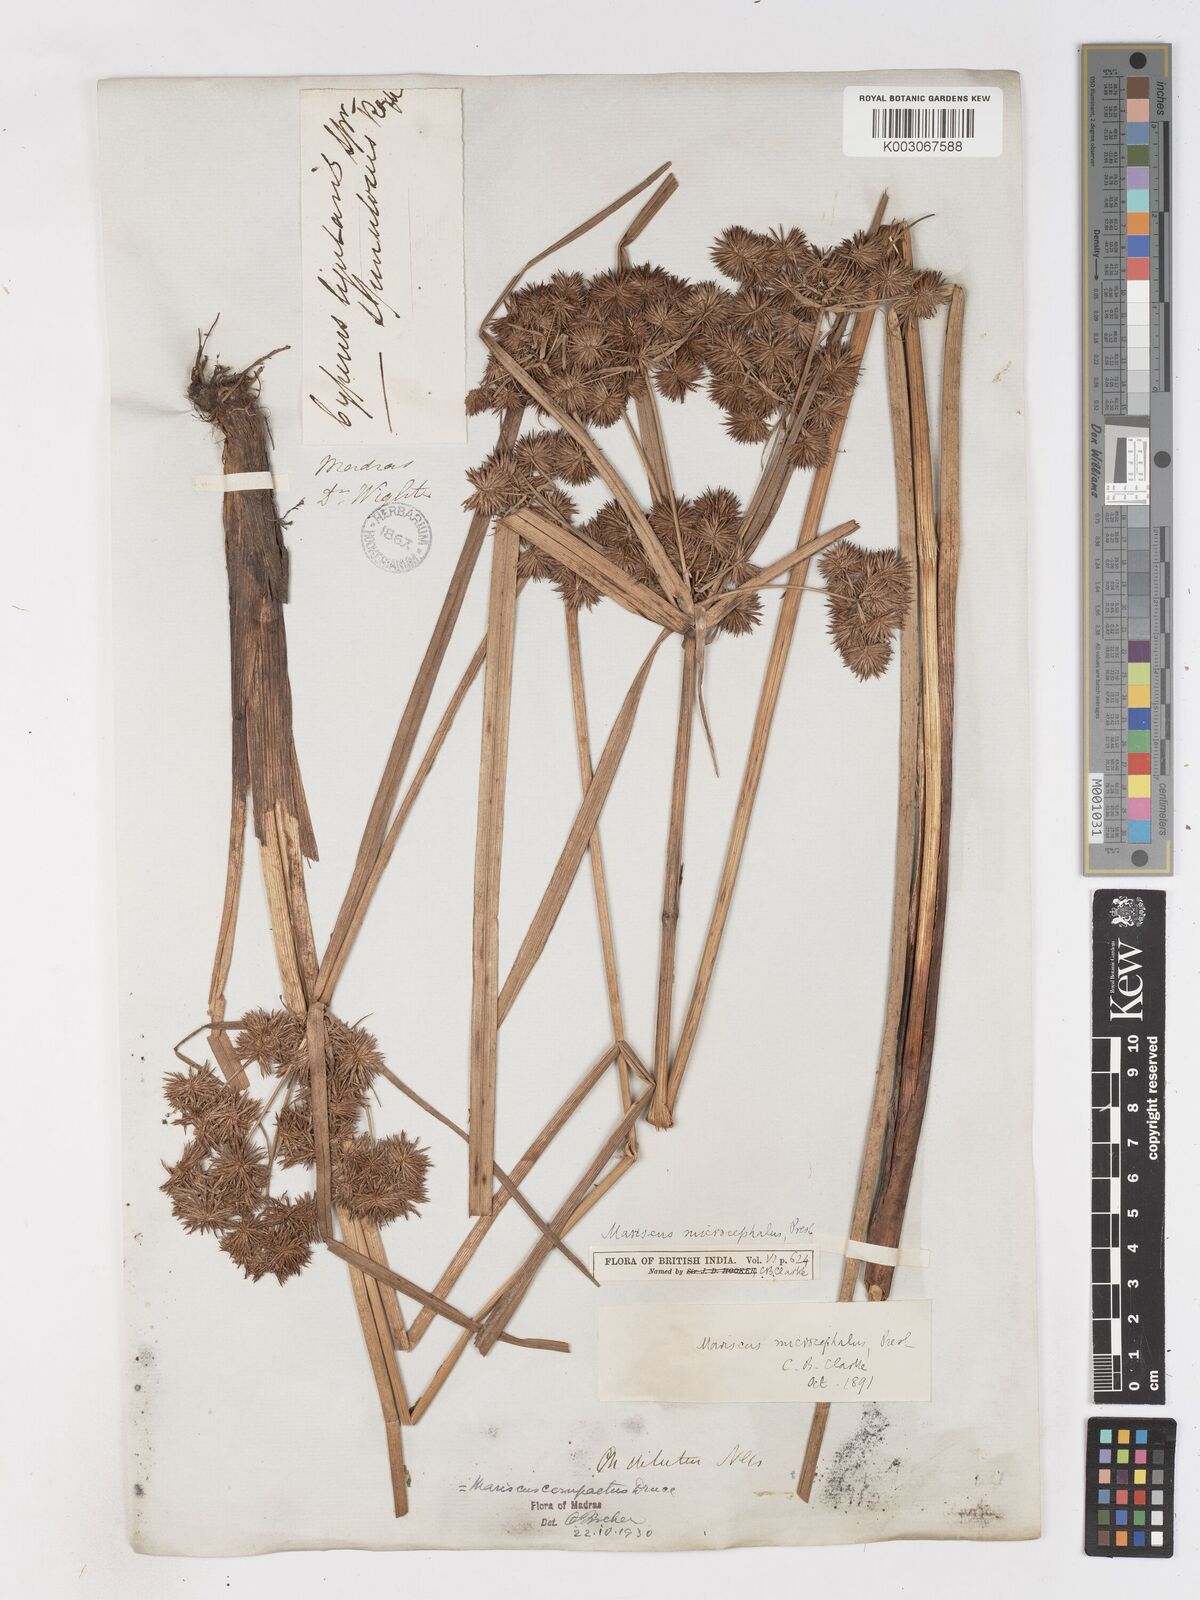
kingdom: Plantae
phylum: Tracheophyta
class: Liliopsida
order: Poales
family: Cyperaceae
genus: Cyperus
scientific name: Cyperus compactus
